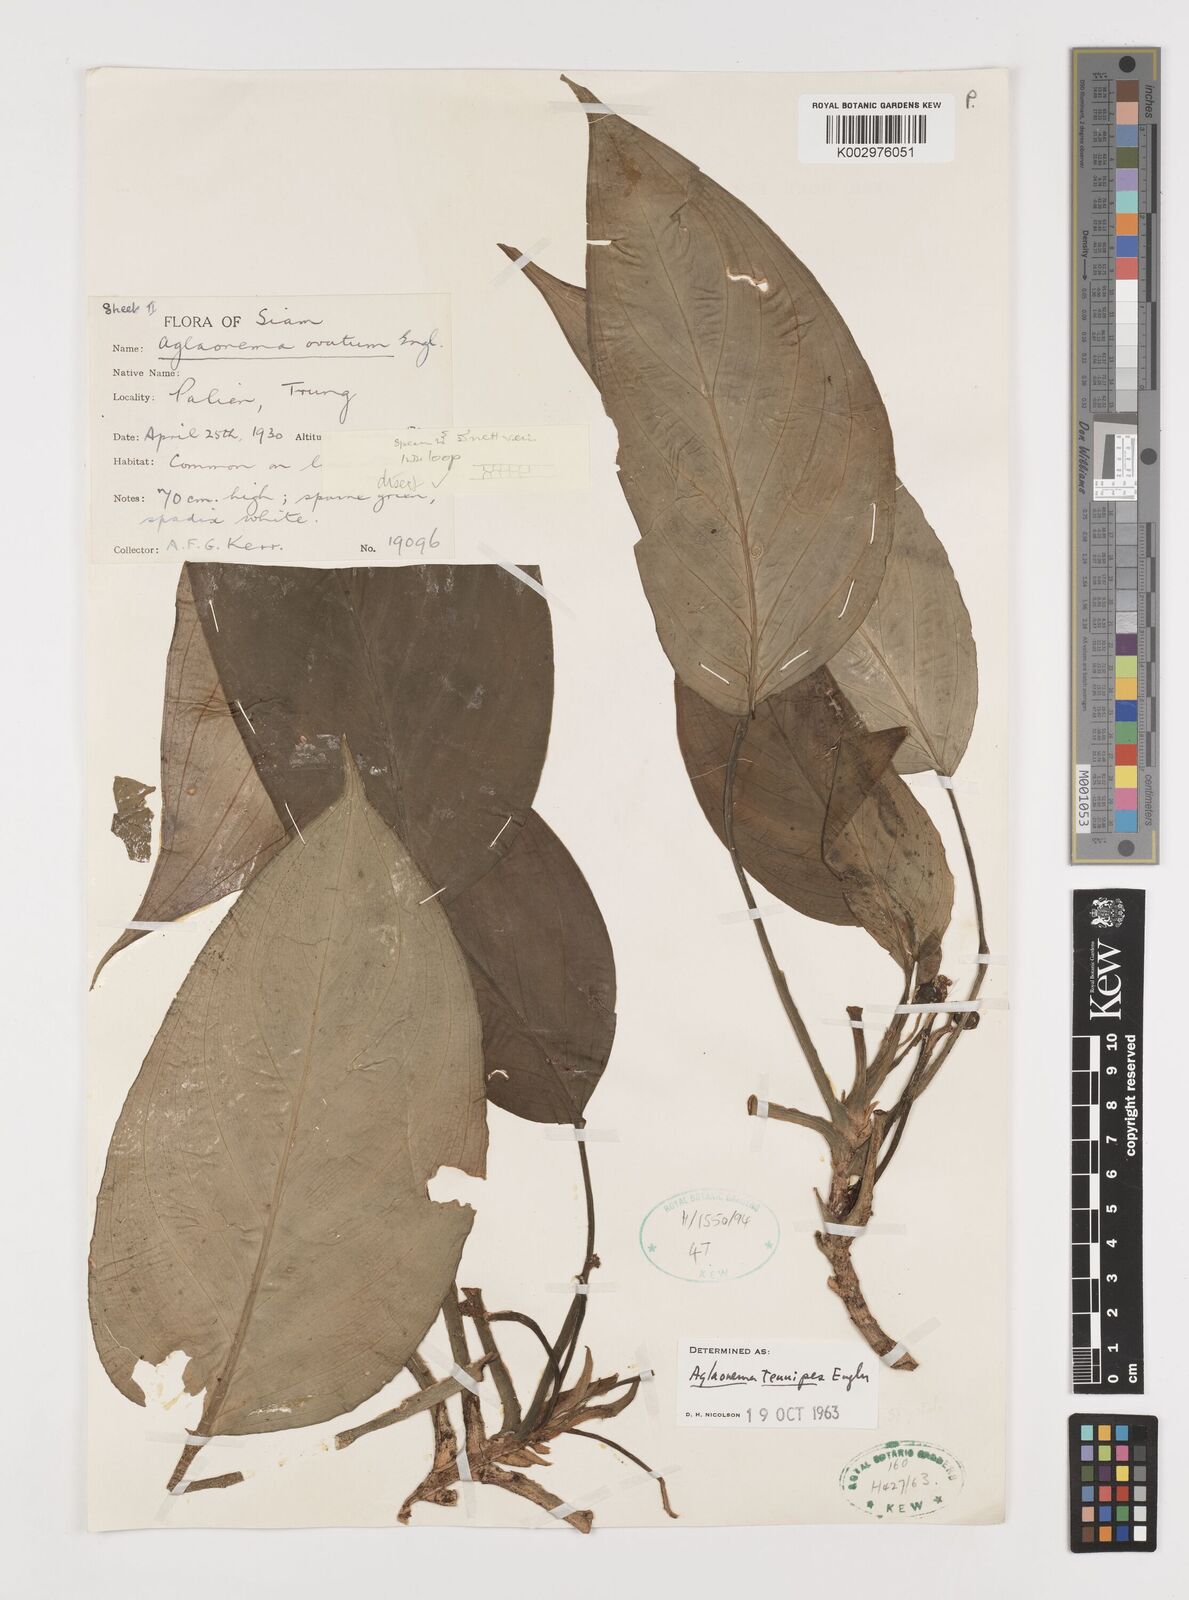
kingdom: Plantae
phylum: Tracheophyta
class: Liliopsida
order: Alismatales
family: Araceae
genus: Aglaonema
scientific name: Aglaonema simplex
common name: Malayan-sword
